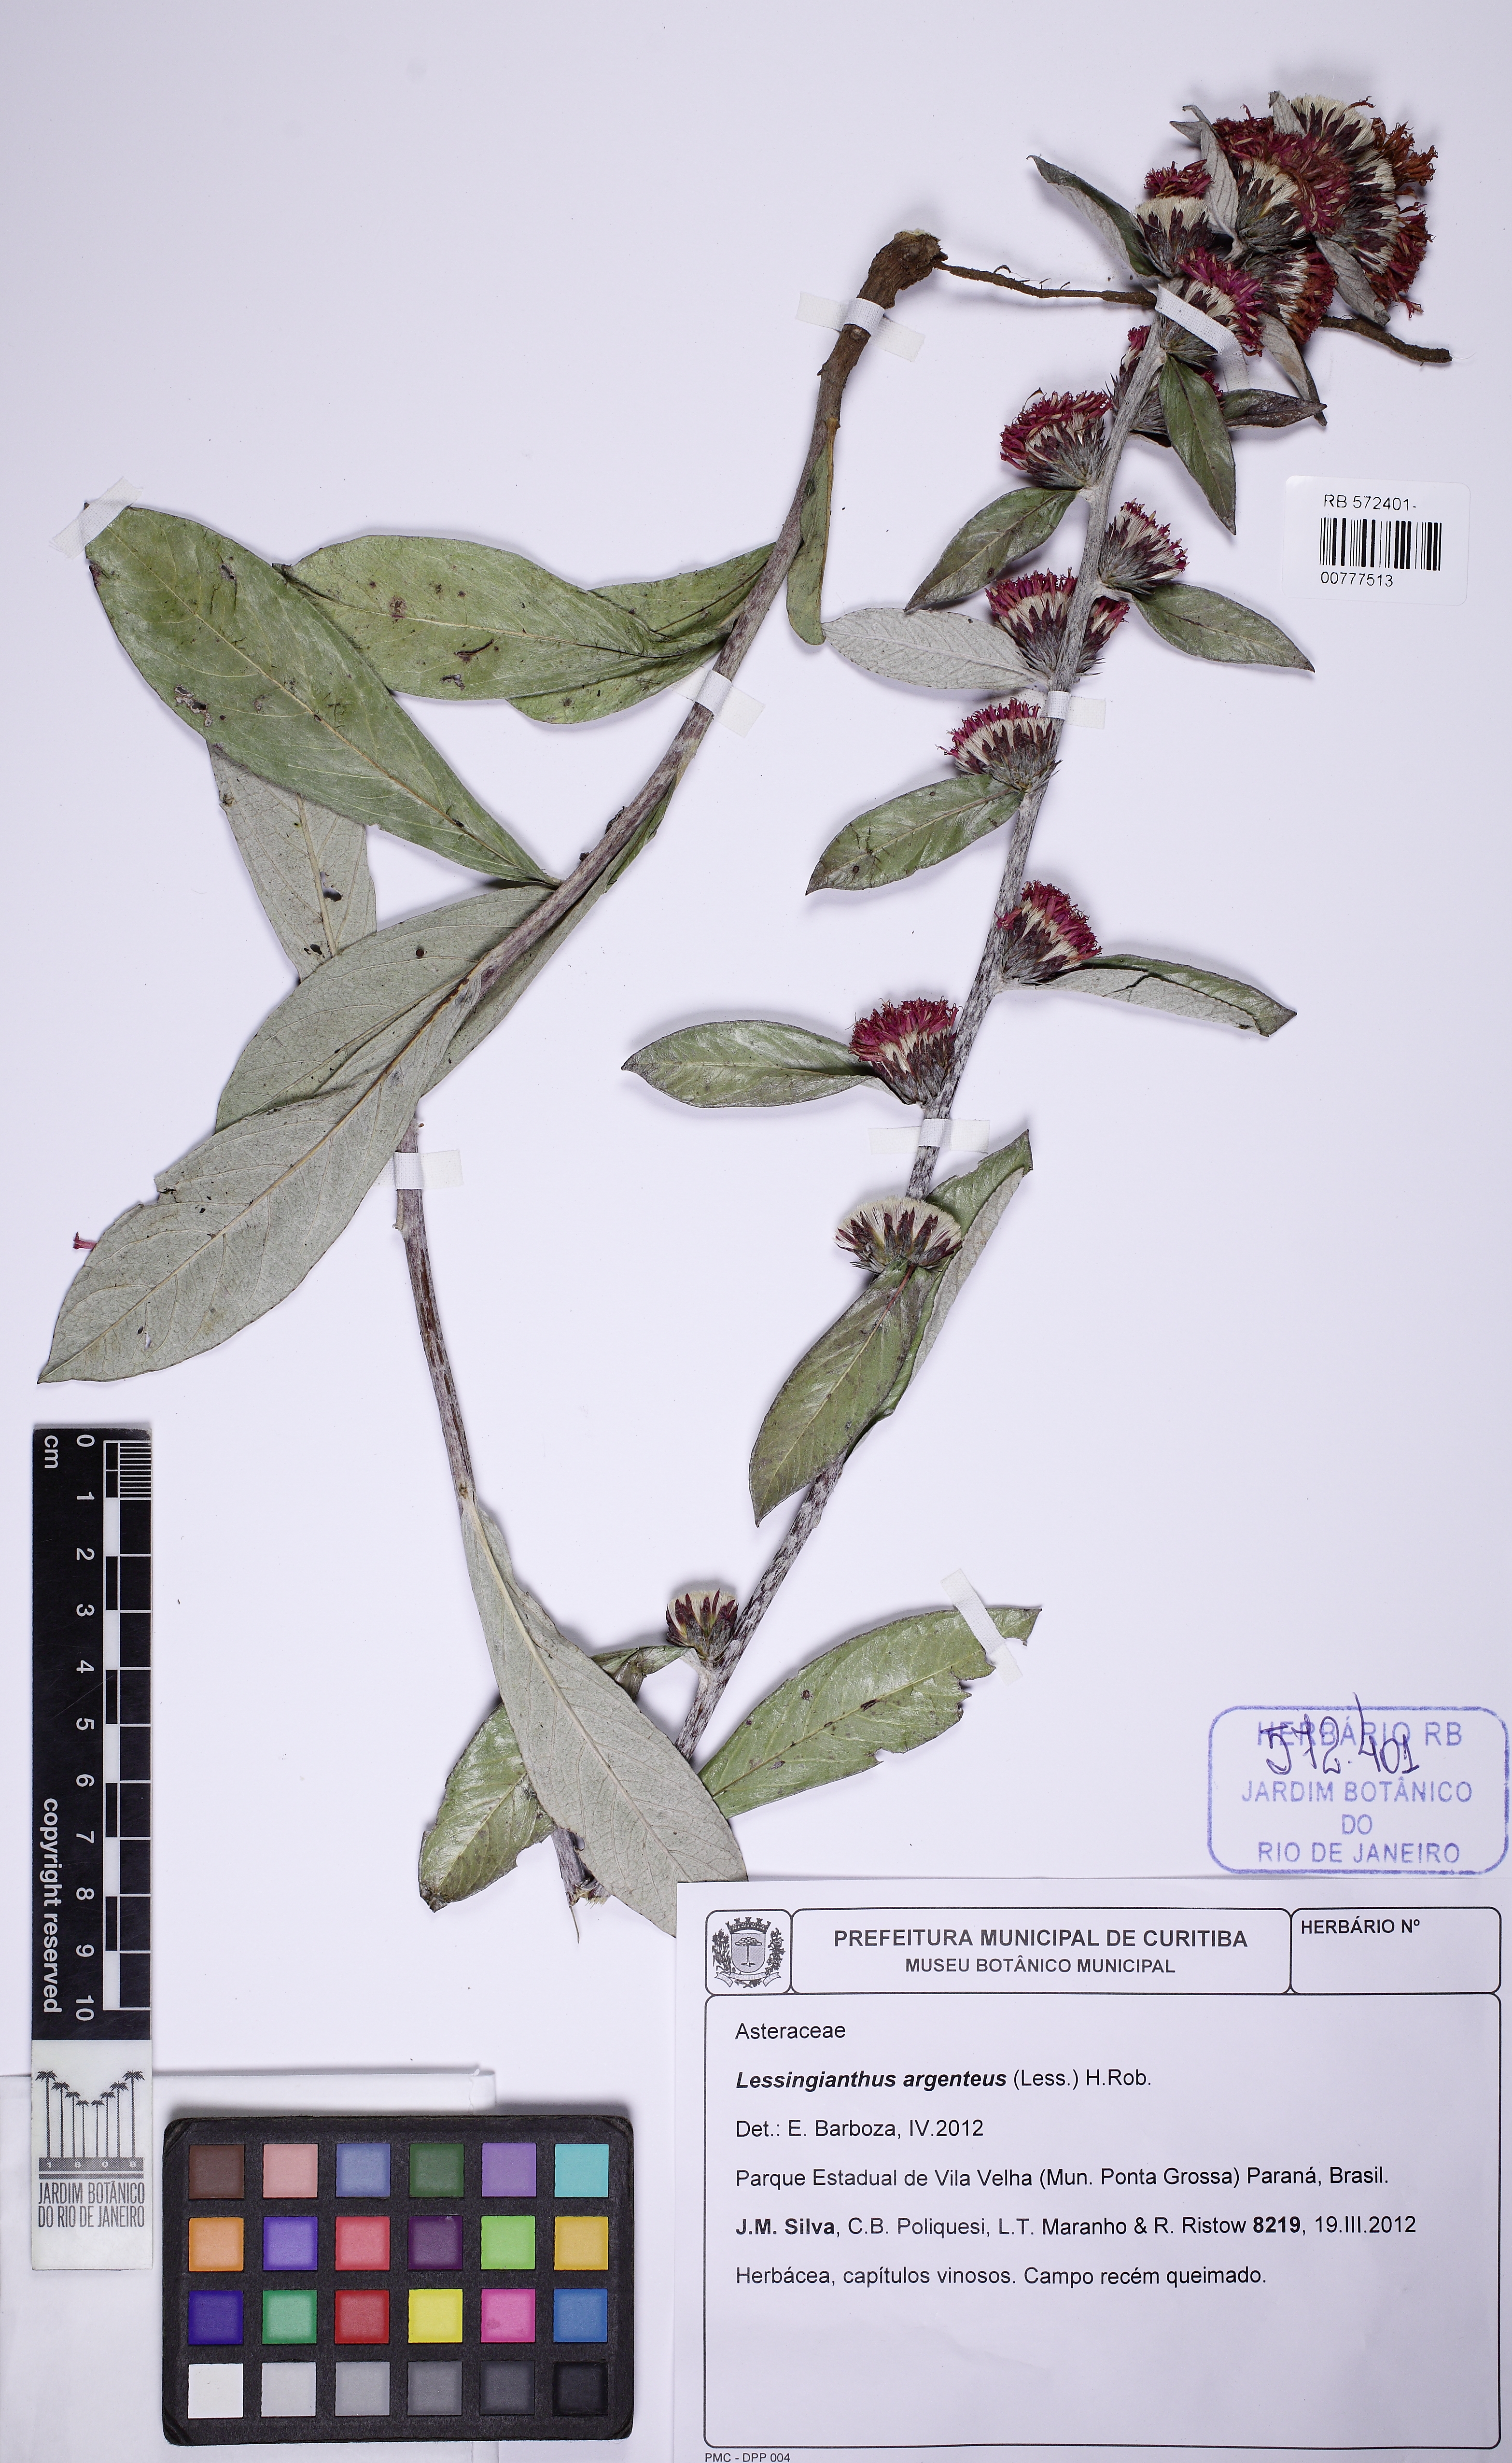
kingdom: Plantae
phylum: Tracheophyta
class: Magnoliopsida
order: Asterales
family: Asteraceae
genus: Lessingianthus
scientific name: Lessingianthus argenteus
